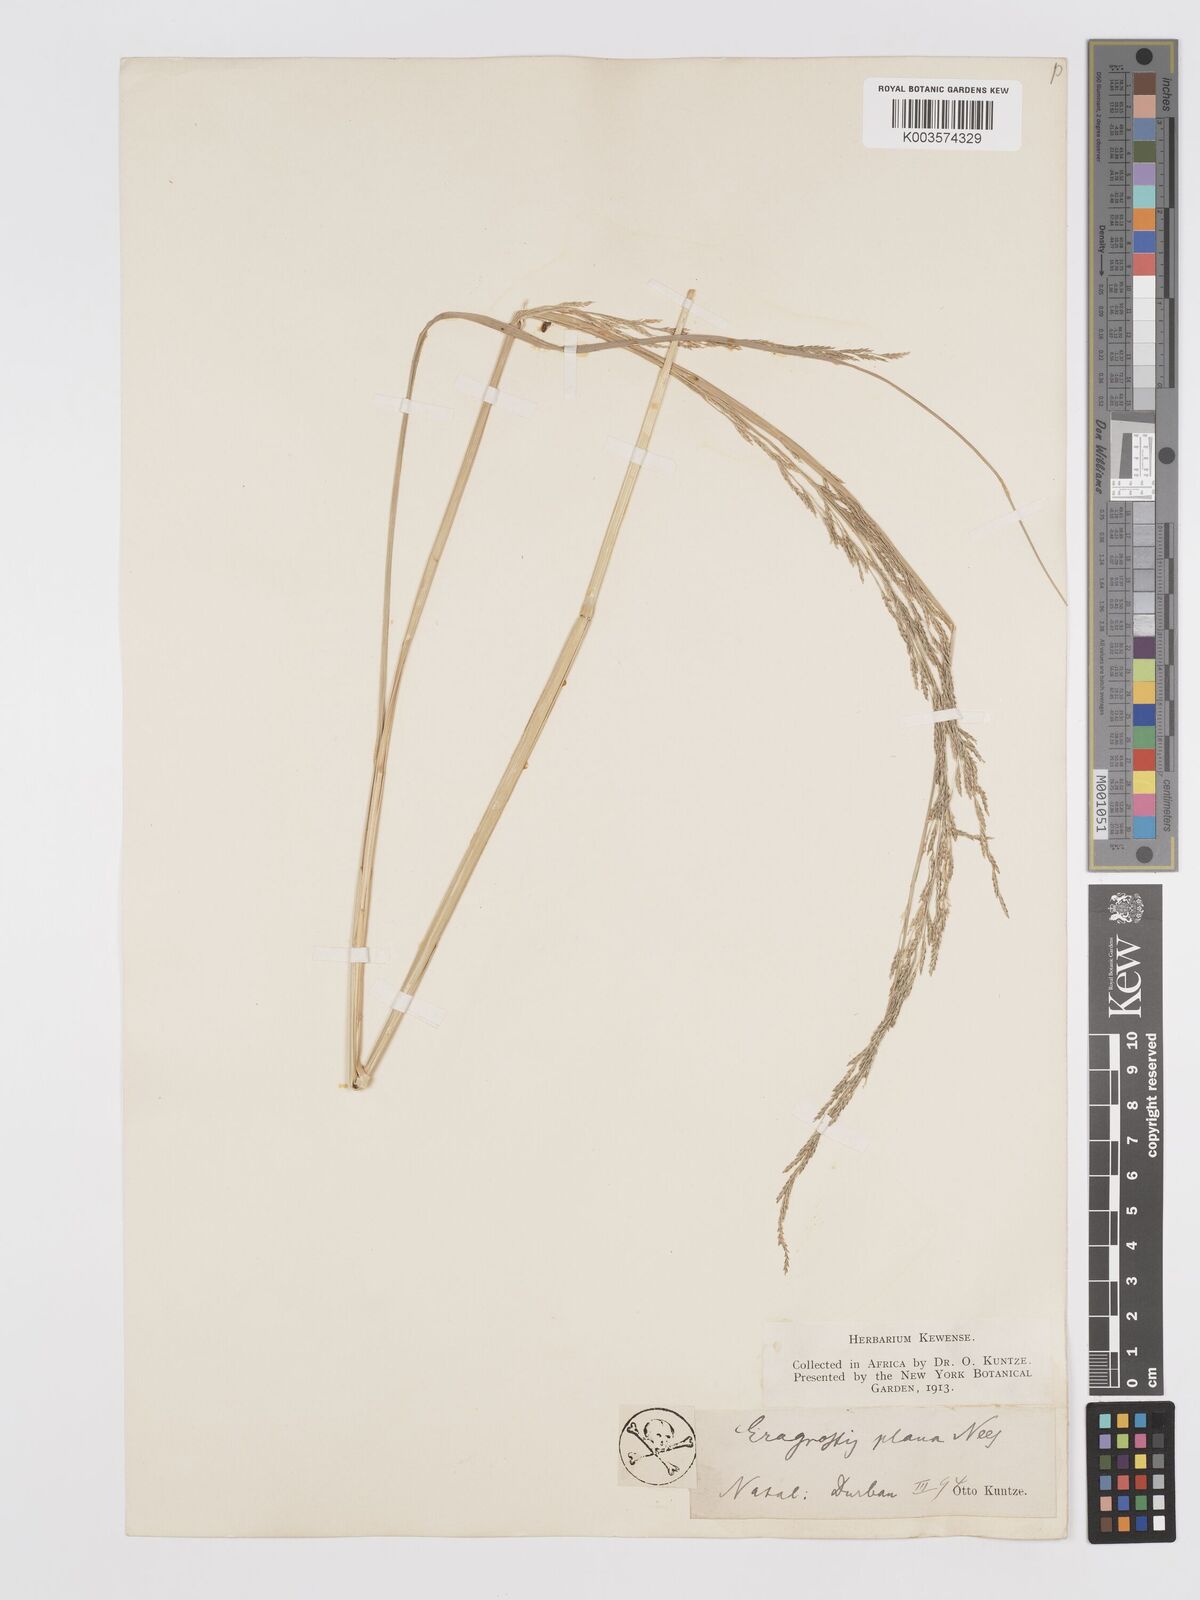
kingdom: Plantae
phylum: Tracheophyta
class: Liliopsida
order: Poales
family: Poaceae
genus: Eragrostis
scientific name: Eragrostis plana
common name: South african lovegrass
